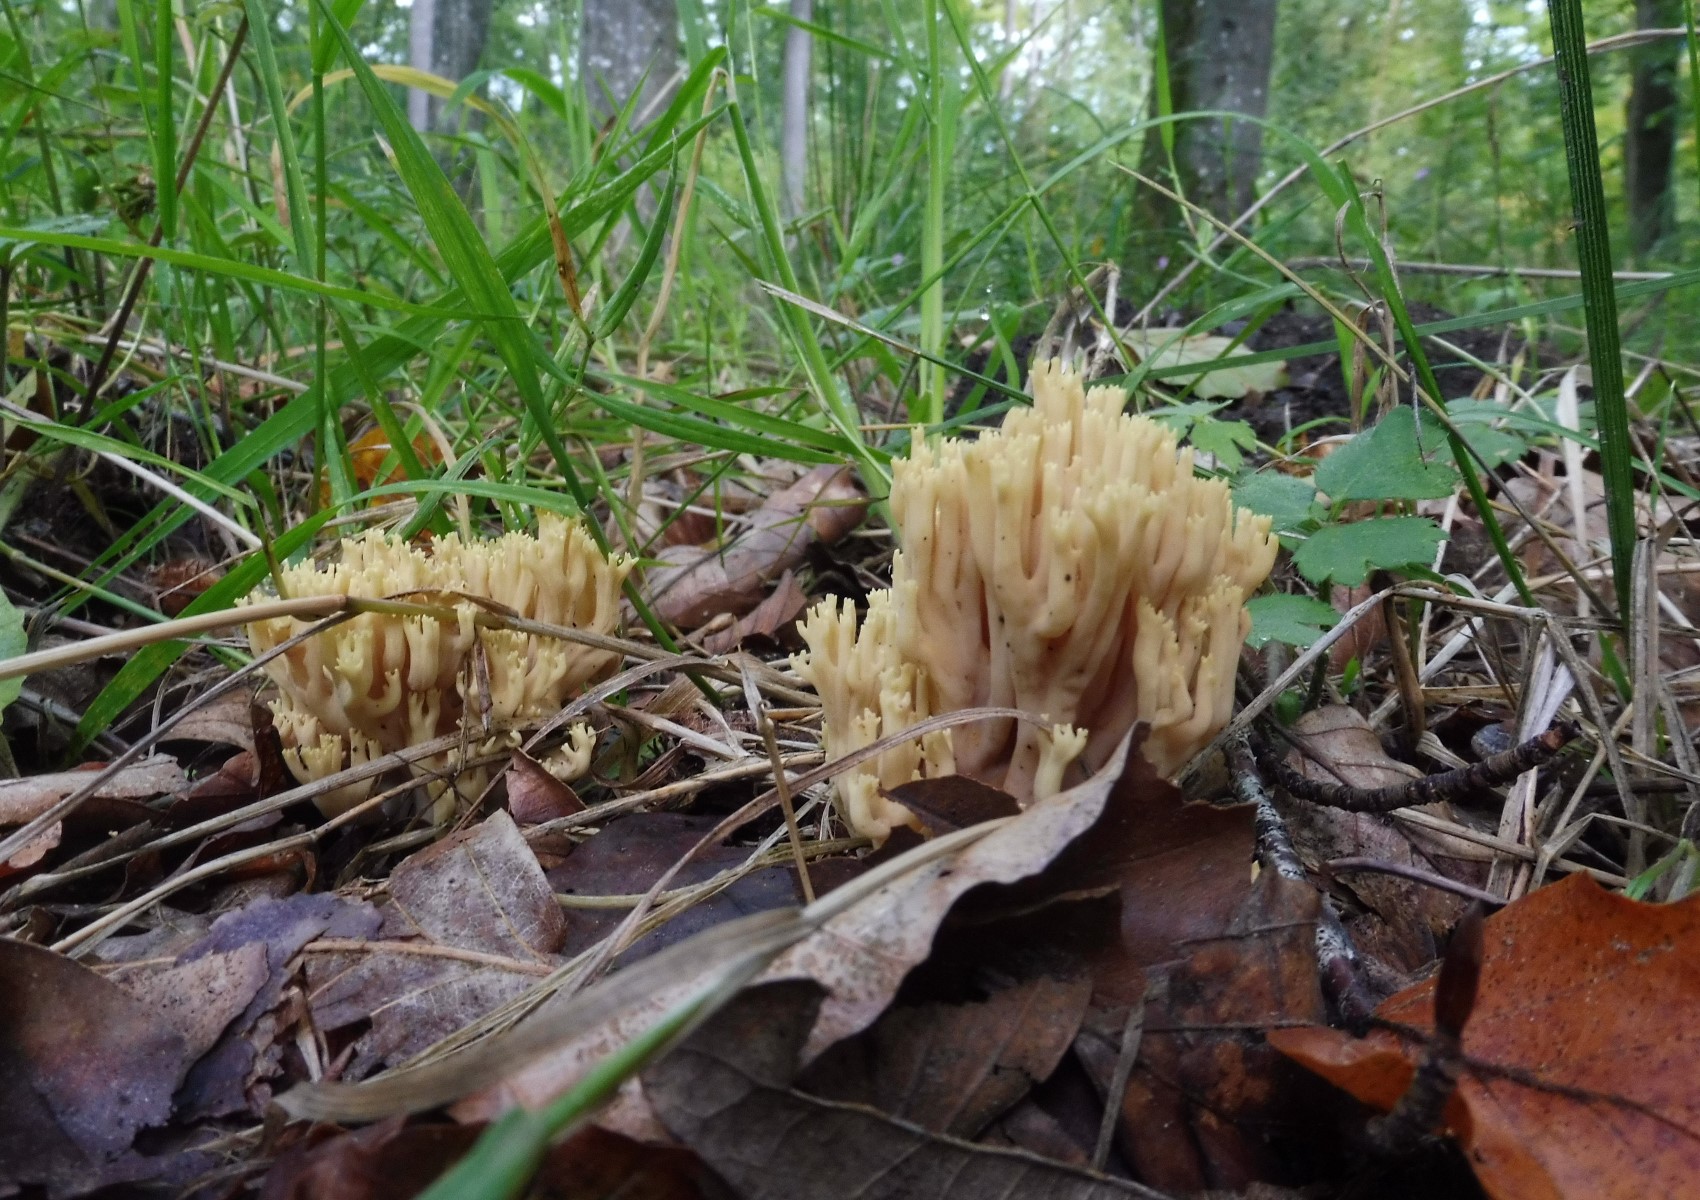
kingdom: Fungi
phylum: Basidiomycota
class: Agaricomycetes
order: Gomphales
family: Gomphaceae
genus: Ramaria
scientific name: Ramaria stricta
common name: rank koralsvamp
